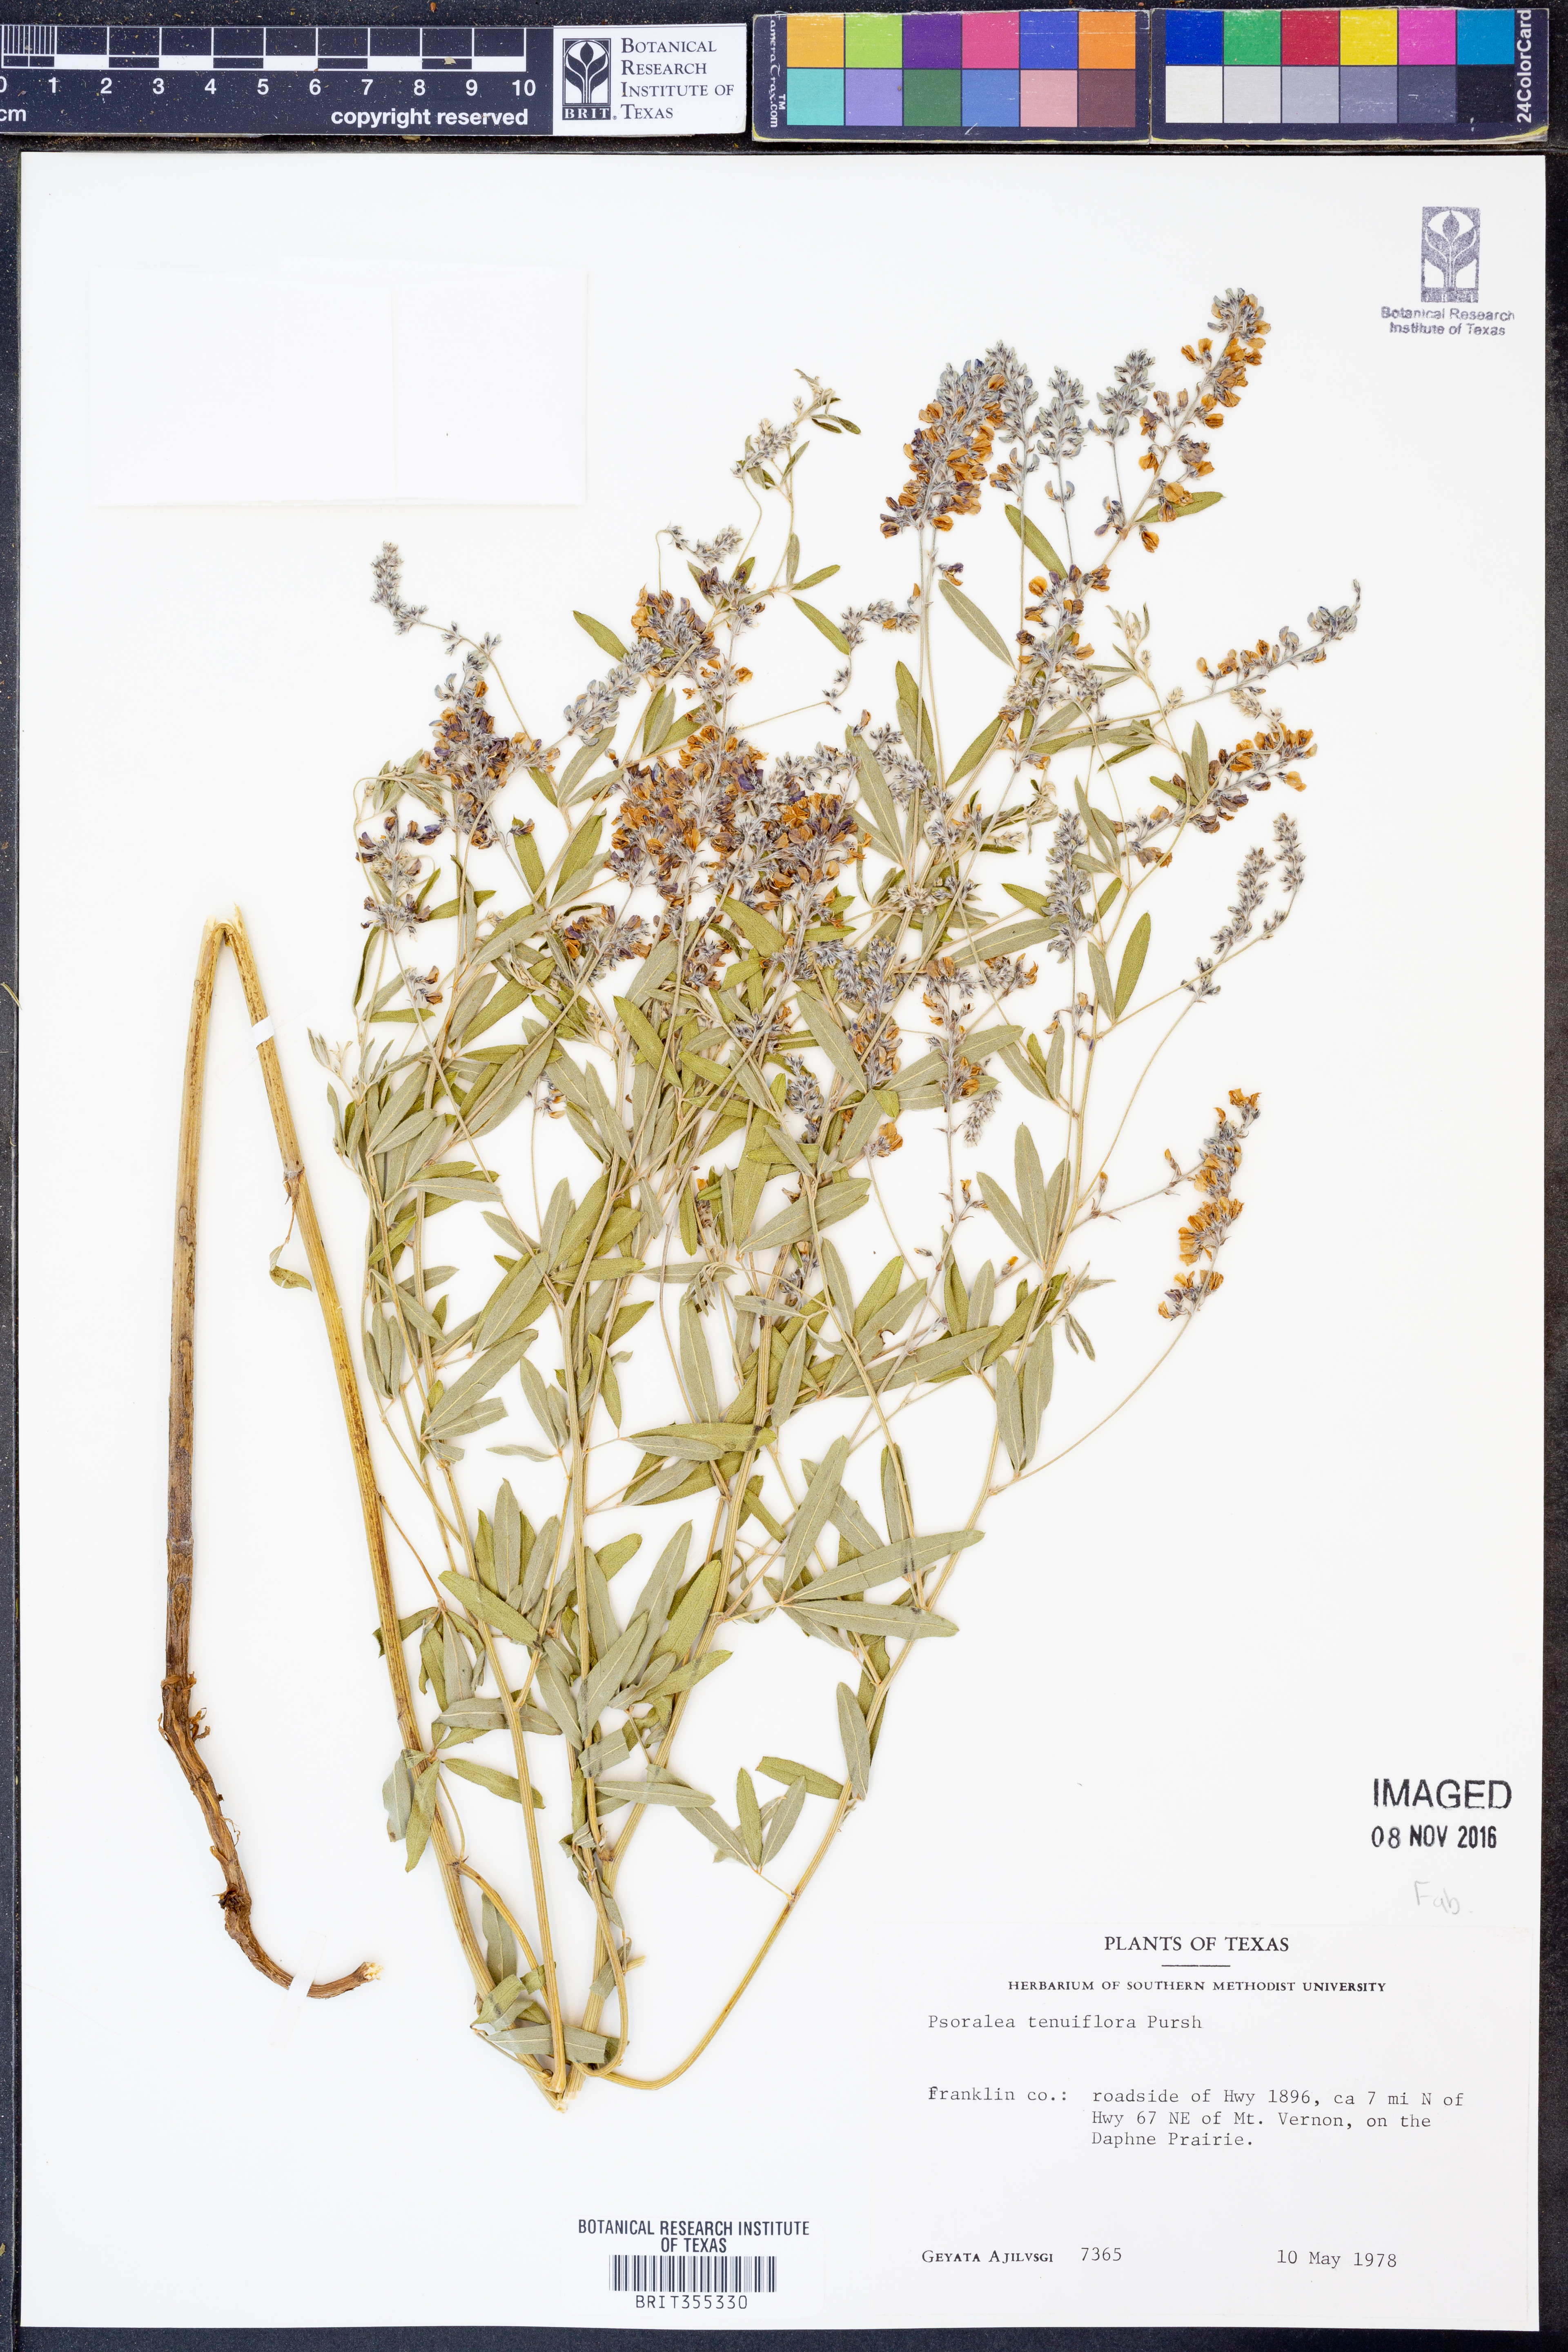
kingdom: Plantae
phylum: Tracheophyta
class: Magnoliopsida
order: Fabales
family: Fabaceae
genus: Pediomelum
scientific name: Pediomelum tenuiflorum
